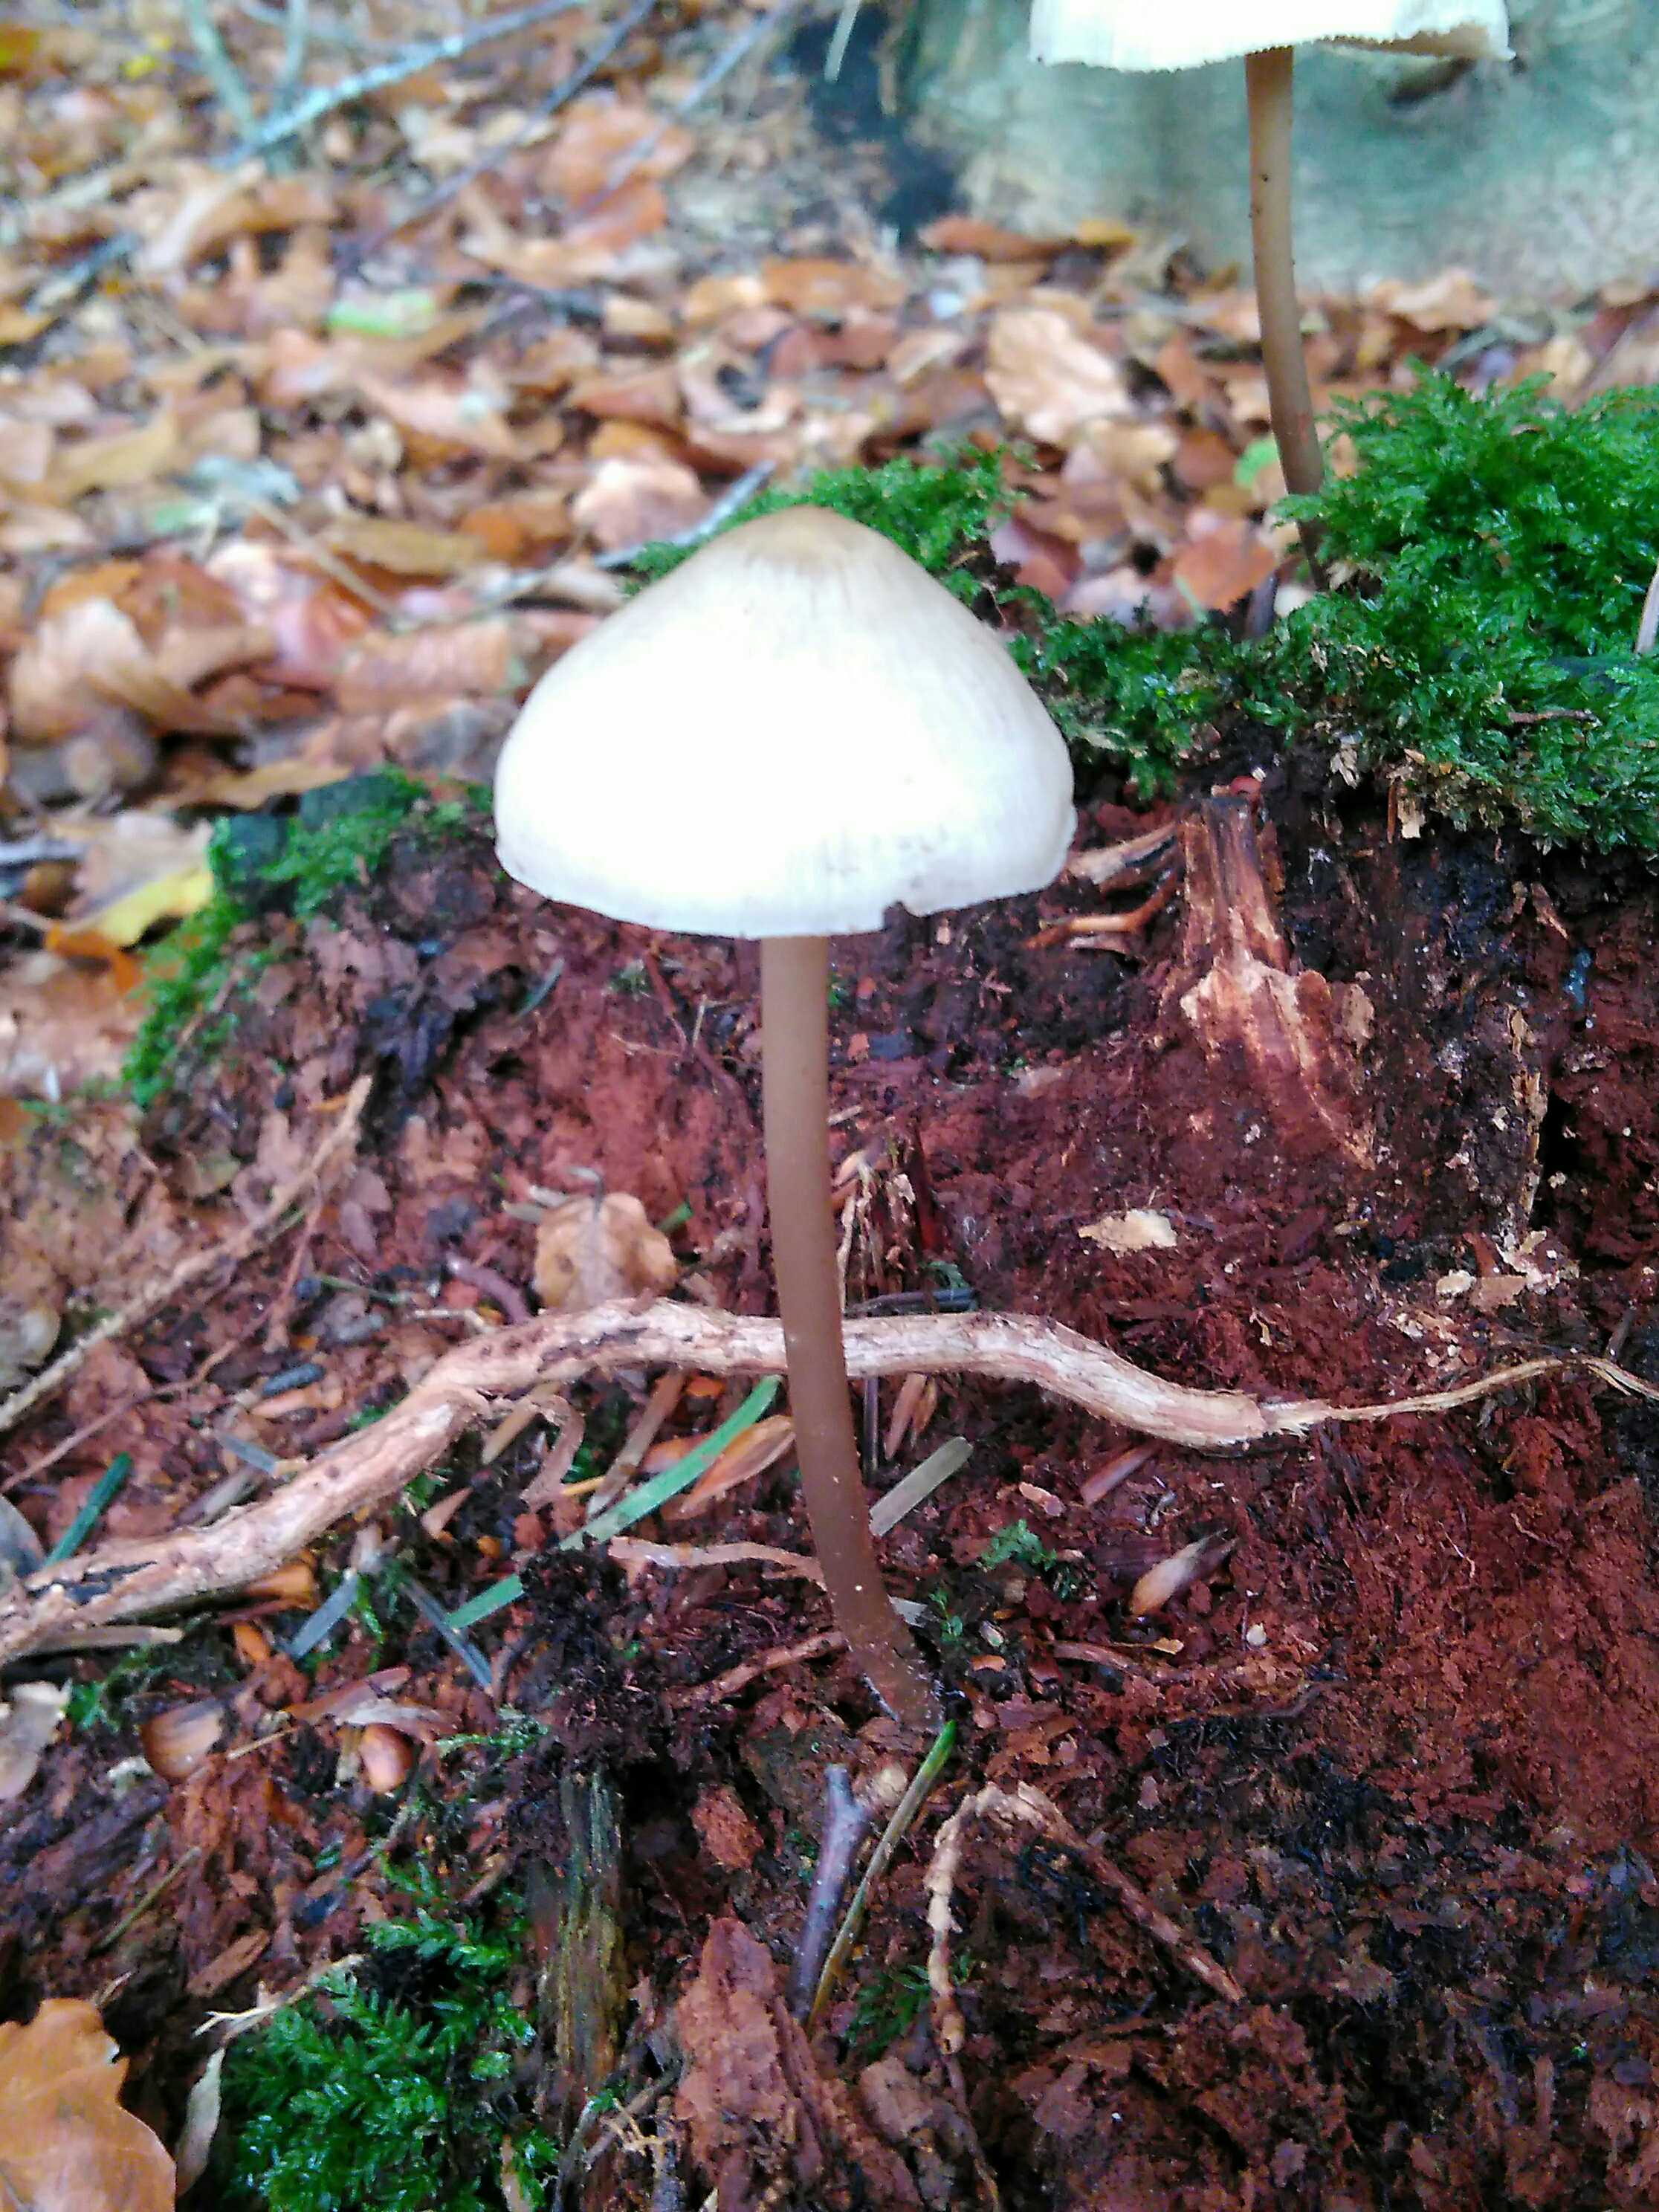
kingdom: Fungi
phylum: Basidiomycota
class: Agaricomycetes
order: Agaricales
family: Mycenaceae
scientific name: Mycenaceae
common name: huesvampfamilien
